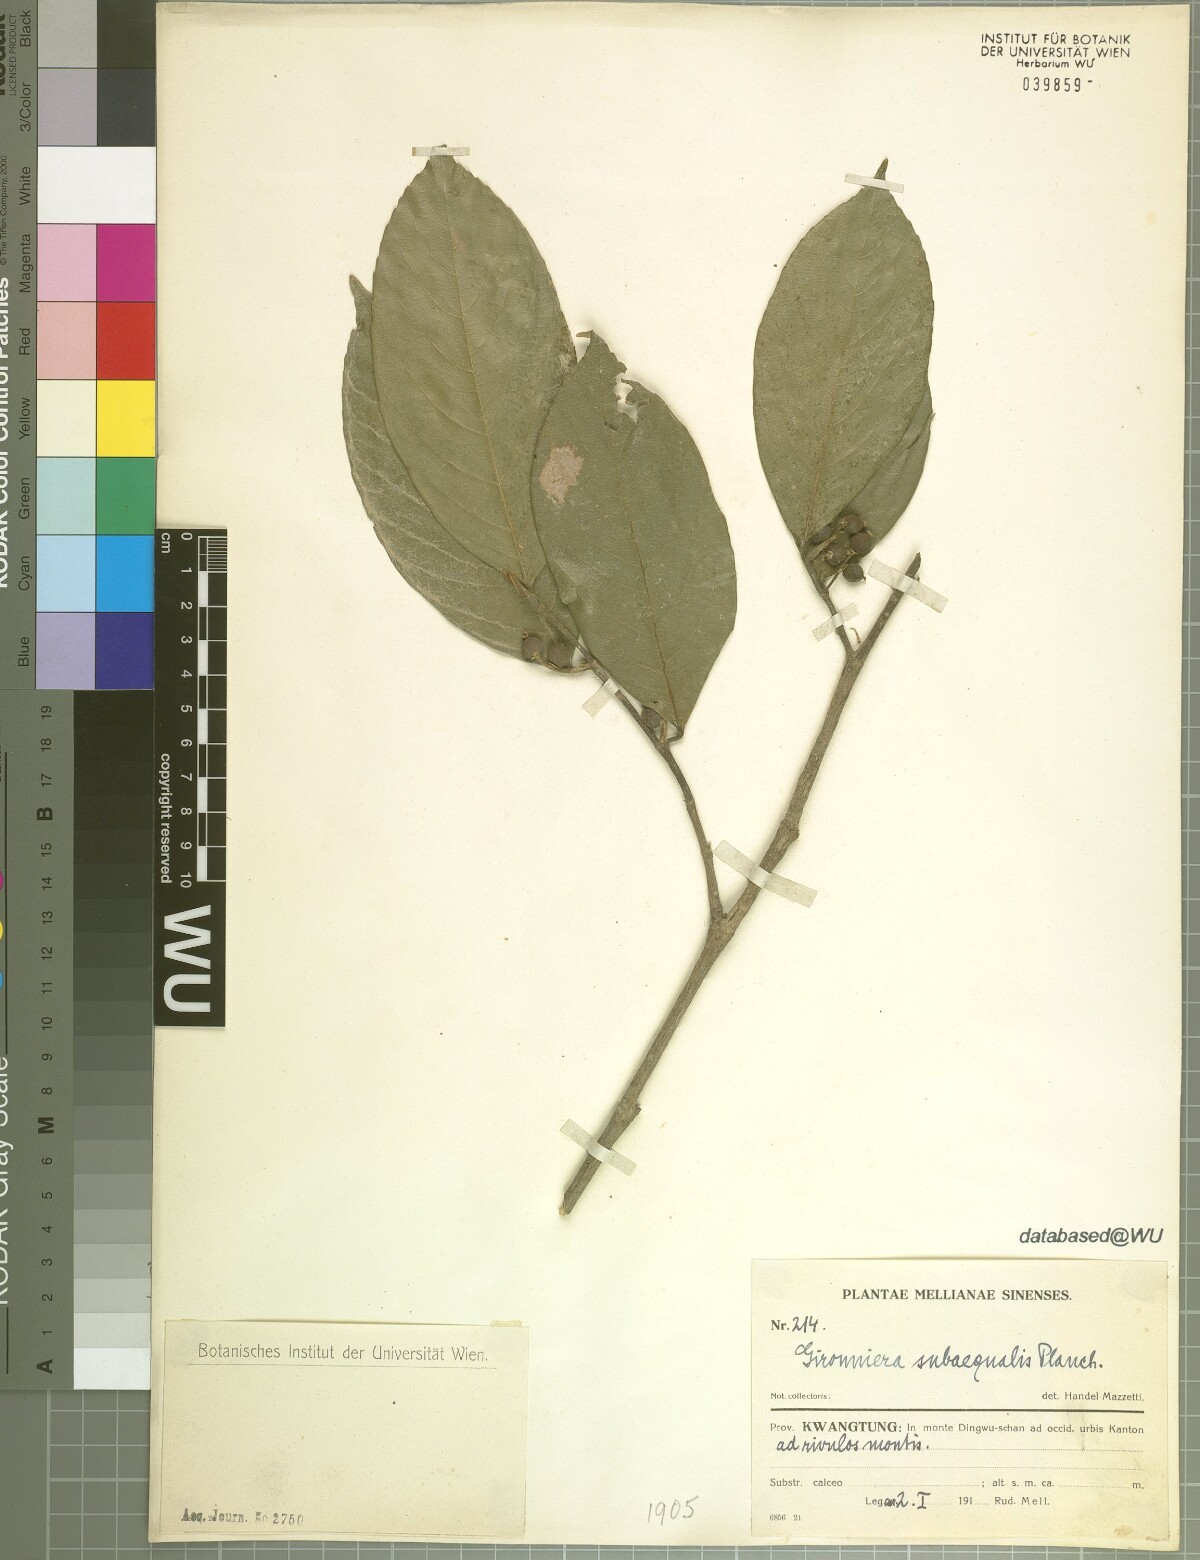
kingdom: Plantae
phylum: Tracheophyta
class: Magnoliopsida
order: Rosales
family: Cannabaceae
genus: Gironniera
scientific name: Gironniera subaequalis
